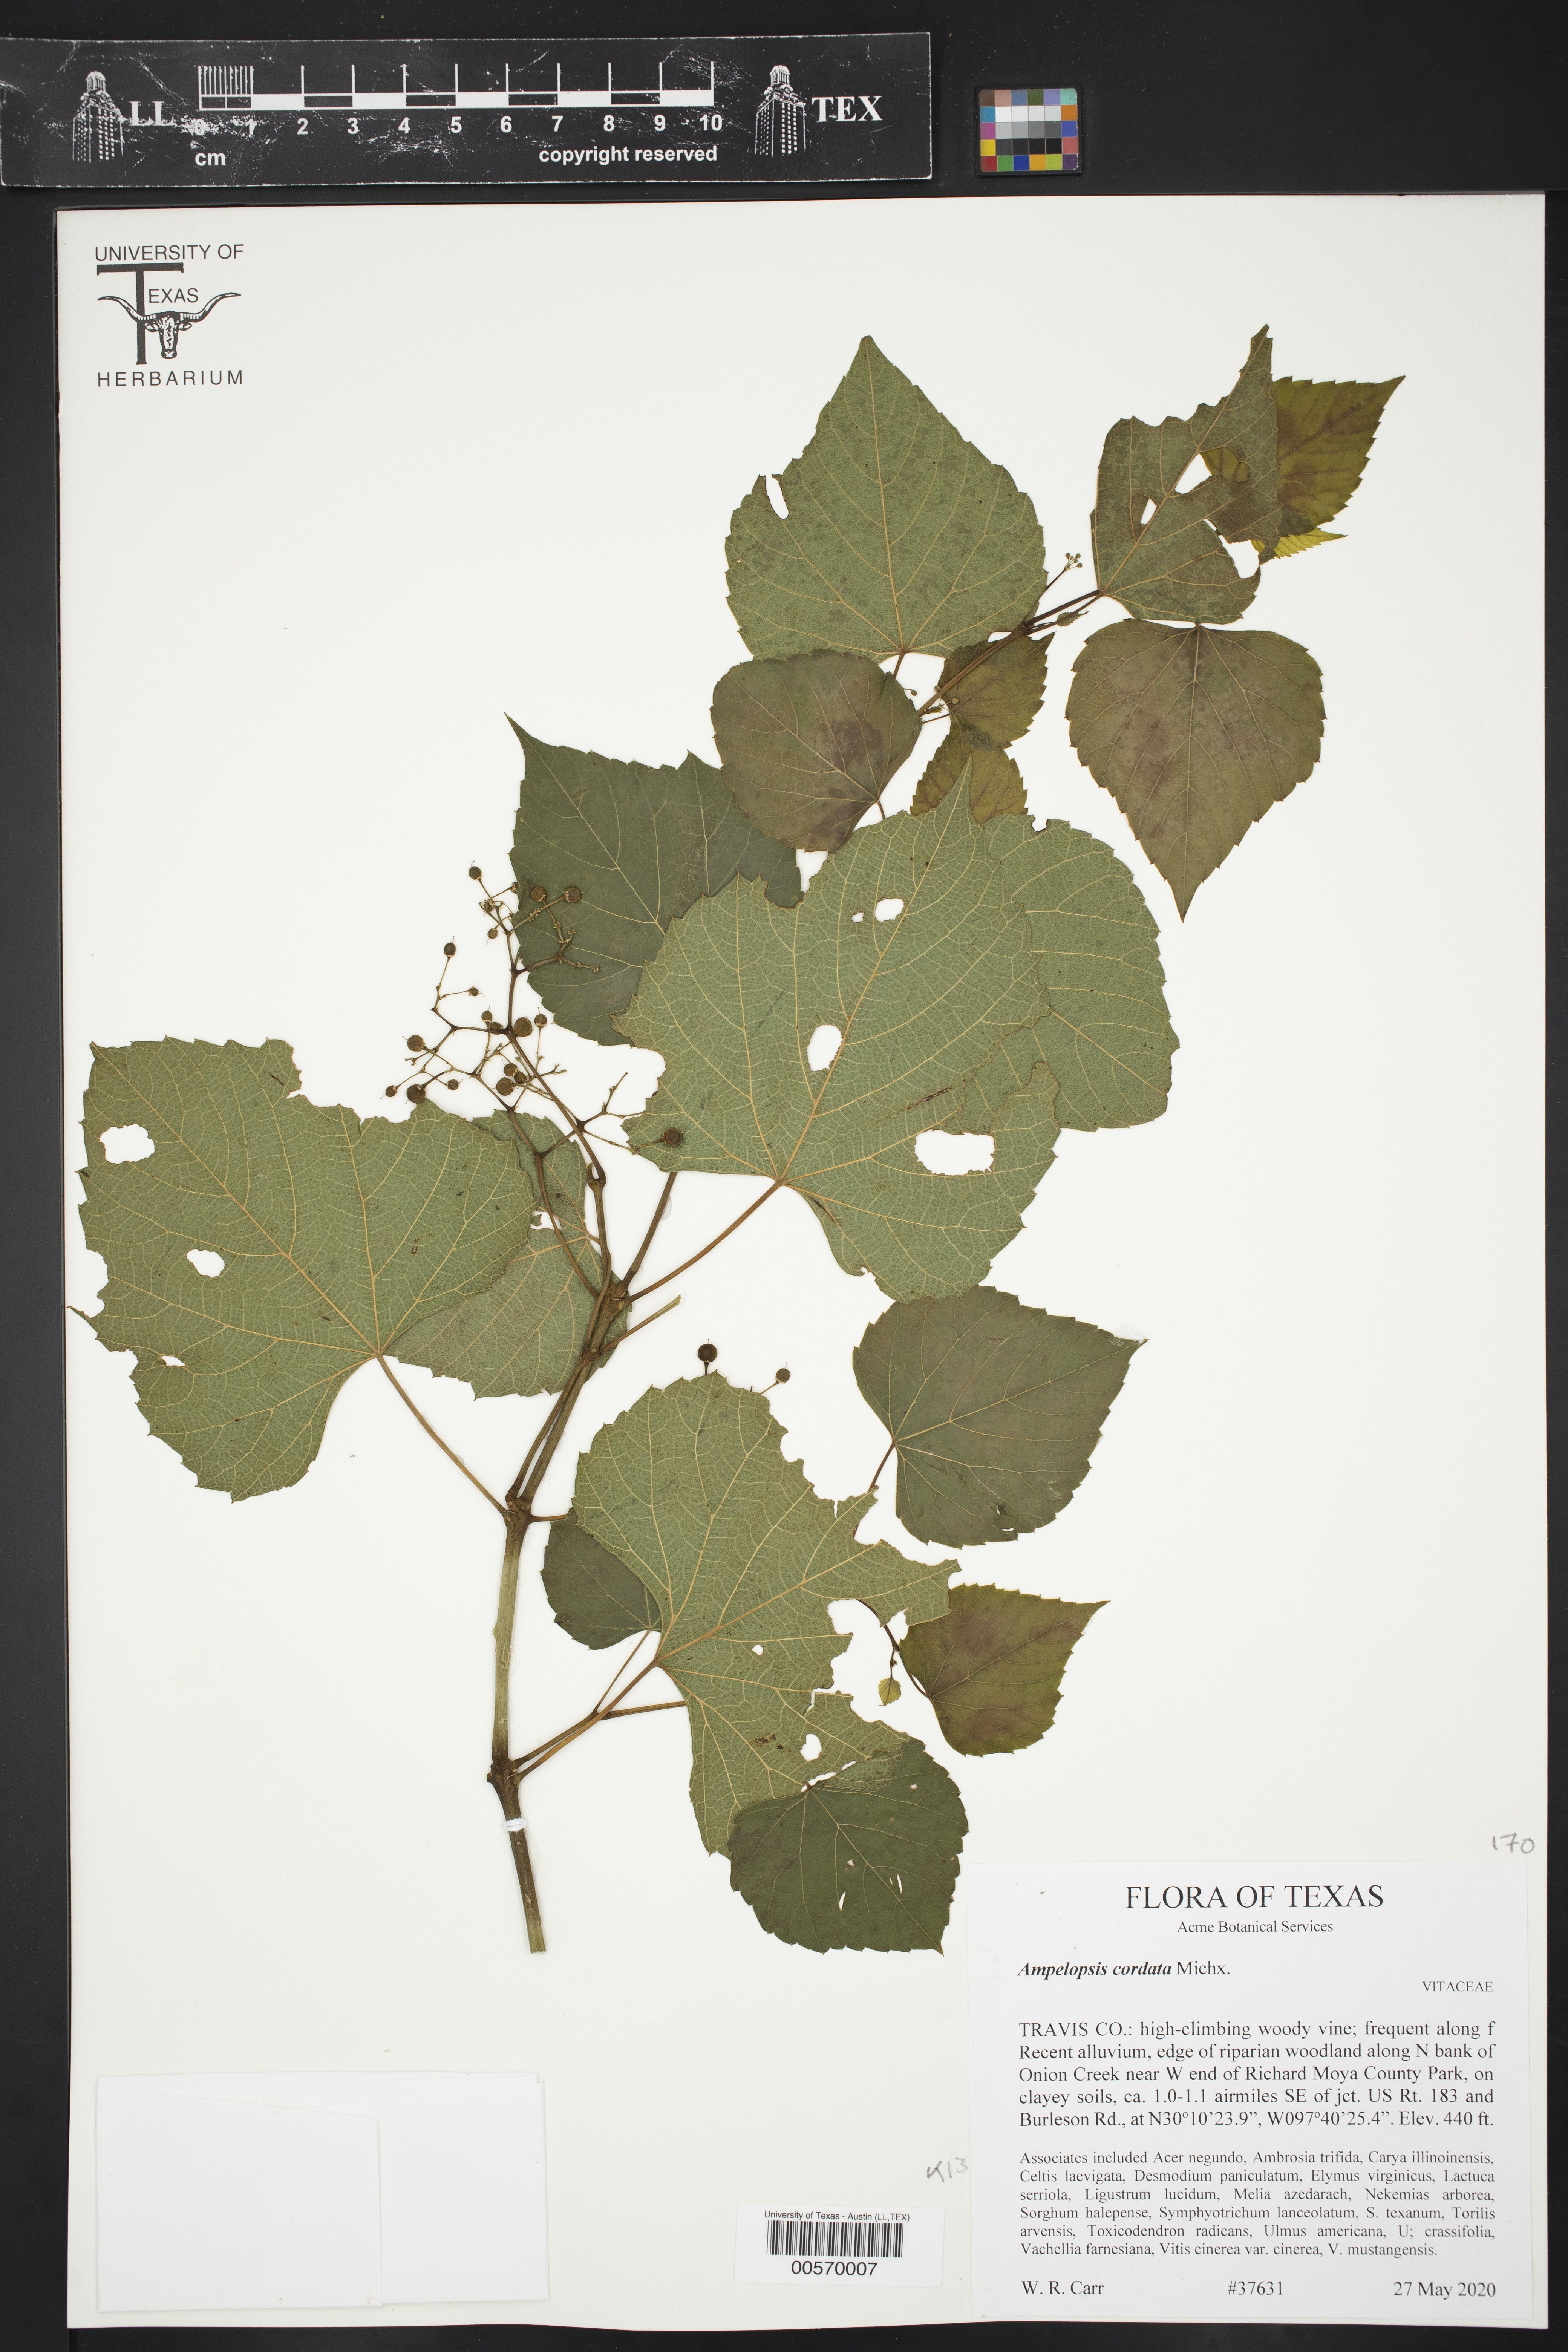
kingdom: Plantae
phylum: Tracheophyta
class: Magnoliopsida
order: Vitales
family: Vitaceae
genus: Ampelopsis
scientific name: Ampelopsis cordata
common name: Heart-leaf ampelopsis
